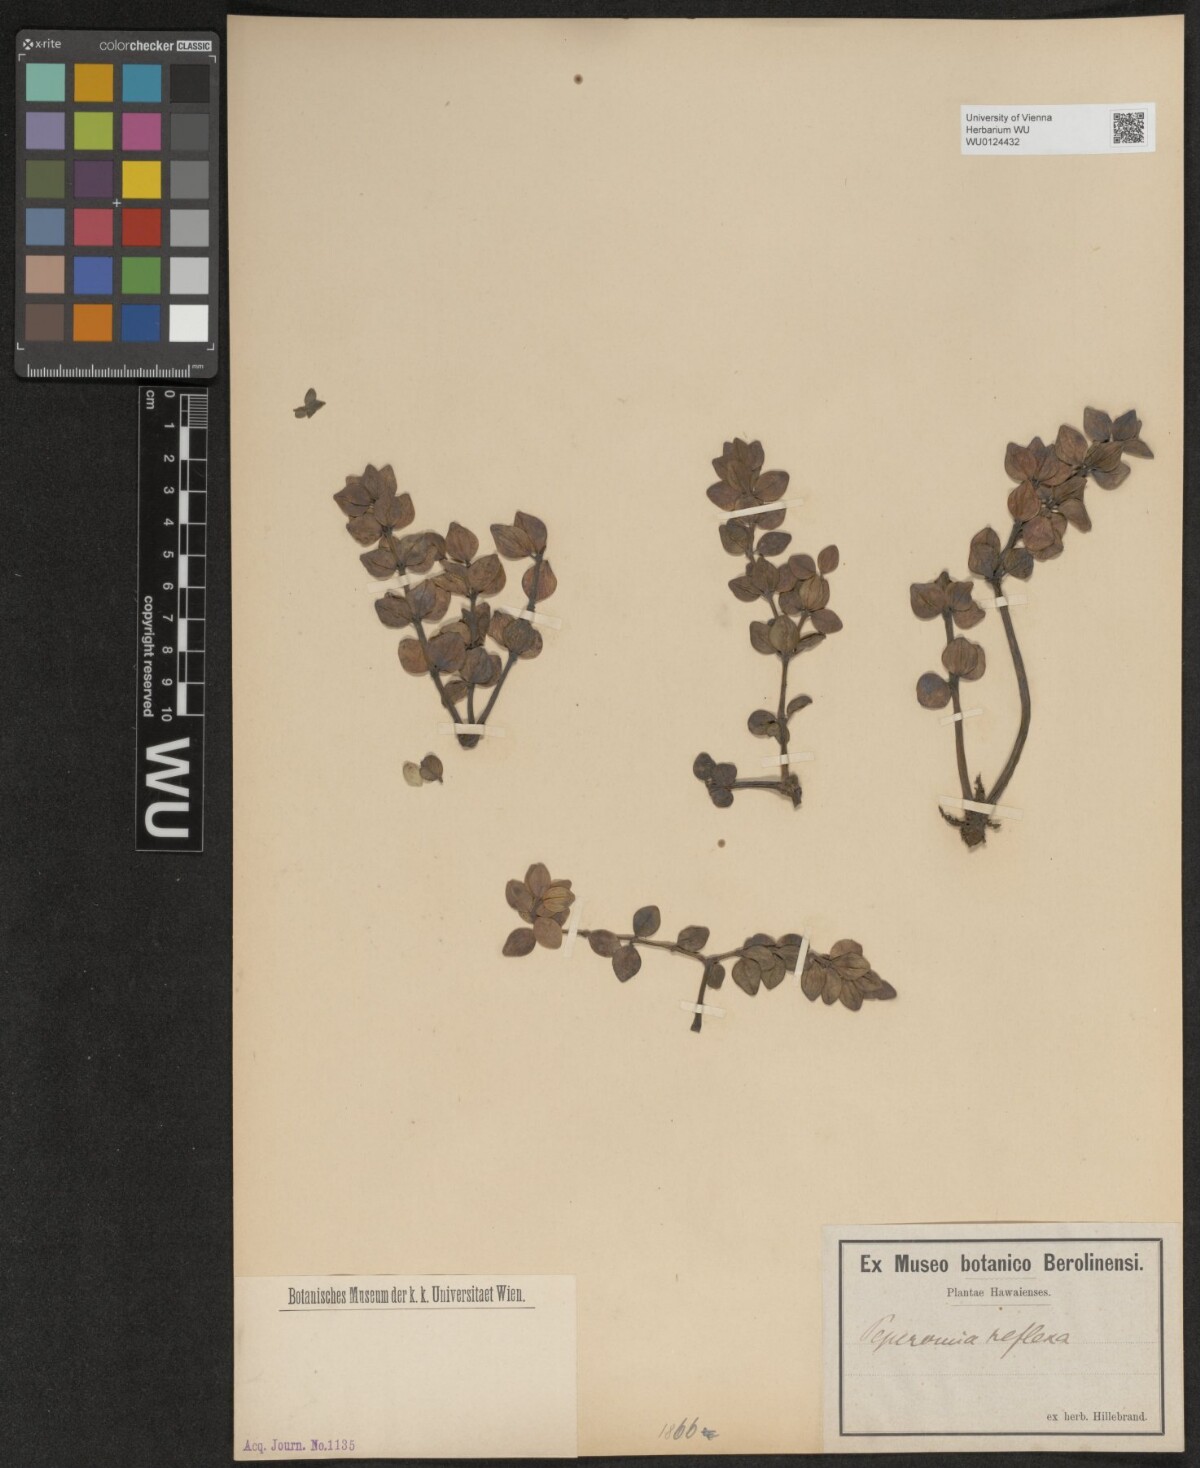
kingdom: Plantae
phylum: Tracheophyta
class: Magnoliopsida
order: Piperales
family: Piperaceae
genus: Peperomia
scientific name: Peperomia tetraphylla
